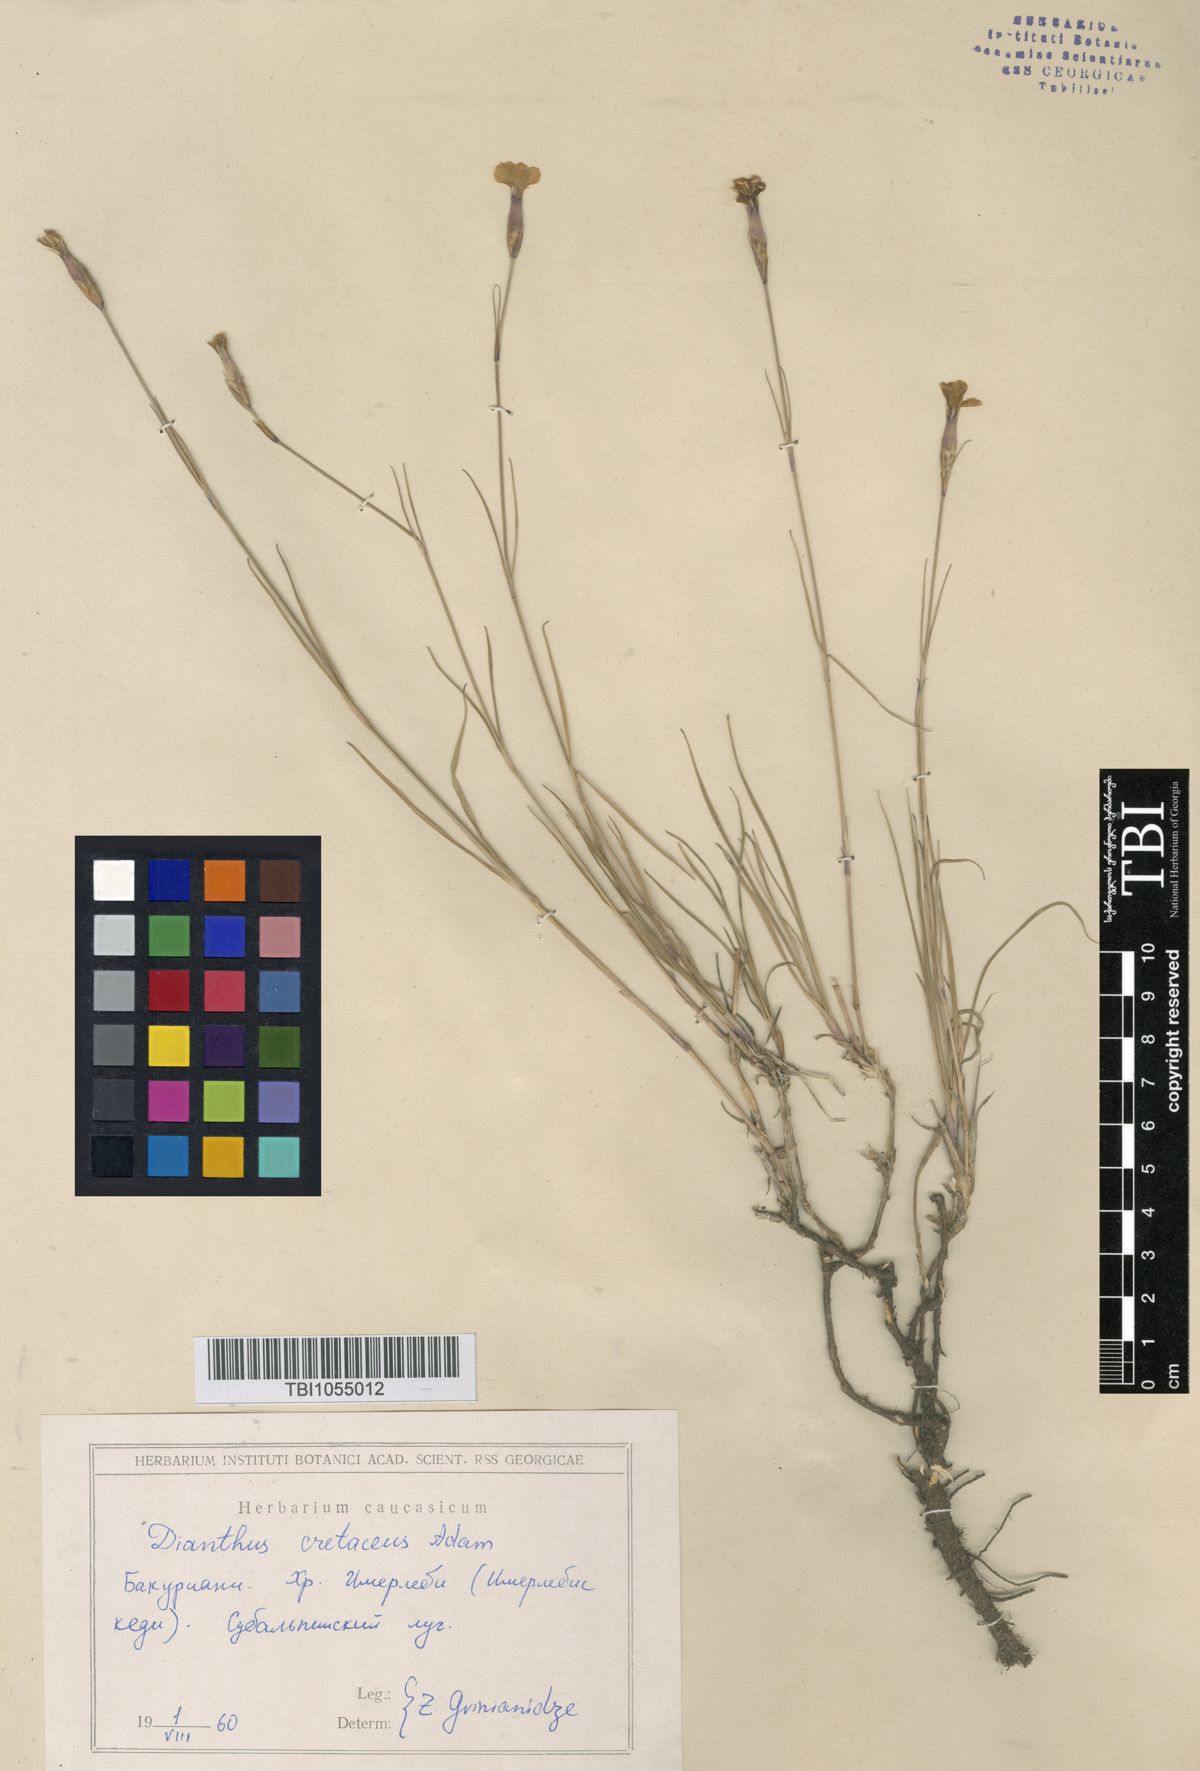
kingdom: Plantae
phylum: Tracheophyta
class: Magnoliopsida
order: Caryophyllales
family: Caryophyllaceae
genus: Dianthus
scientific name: Dianthus cretaceus
